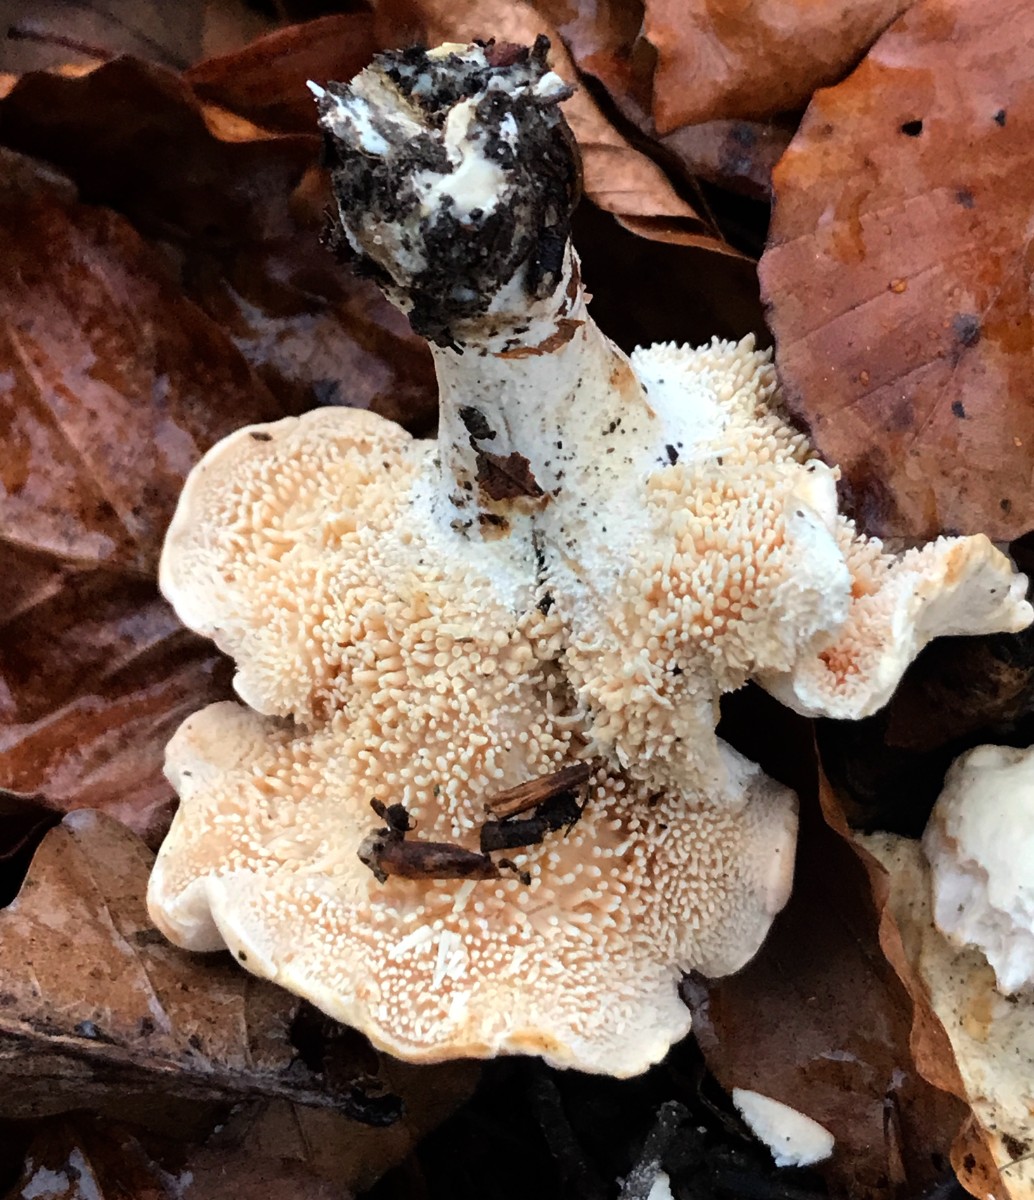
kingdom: Fungi
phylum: Basidiomycota
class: Agaricomycetes
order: Cantharellales
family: Hydnaceae
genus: Hydnum
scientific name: Hydnum repandum
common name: almindelig pigsvamp
